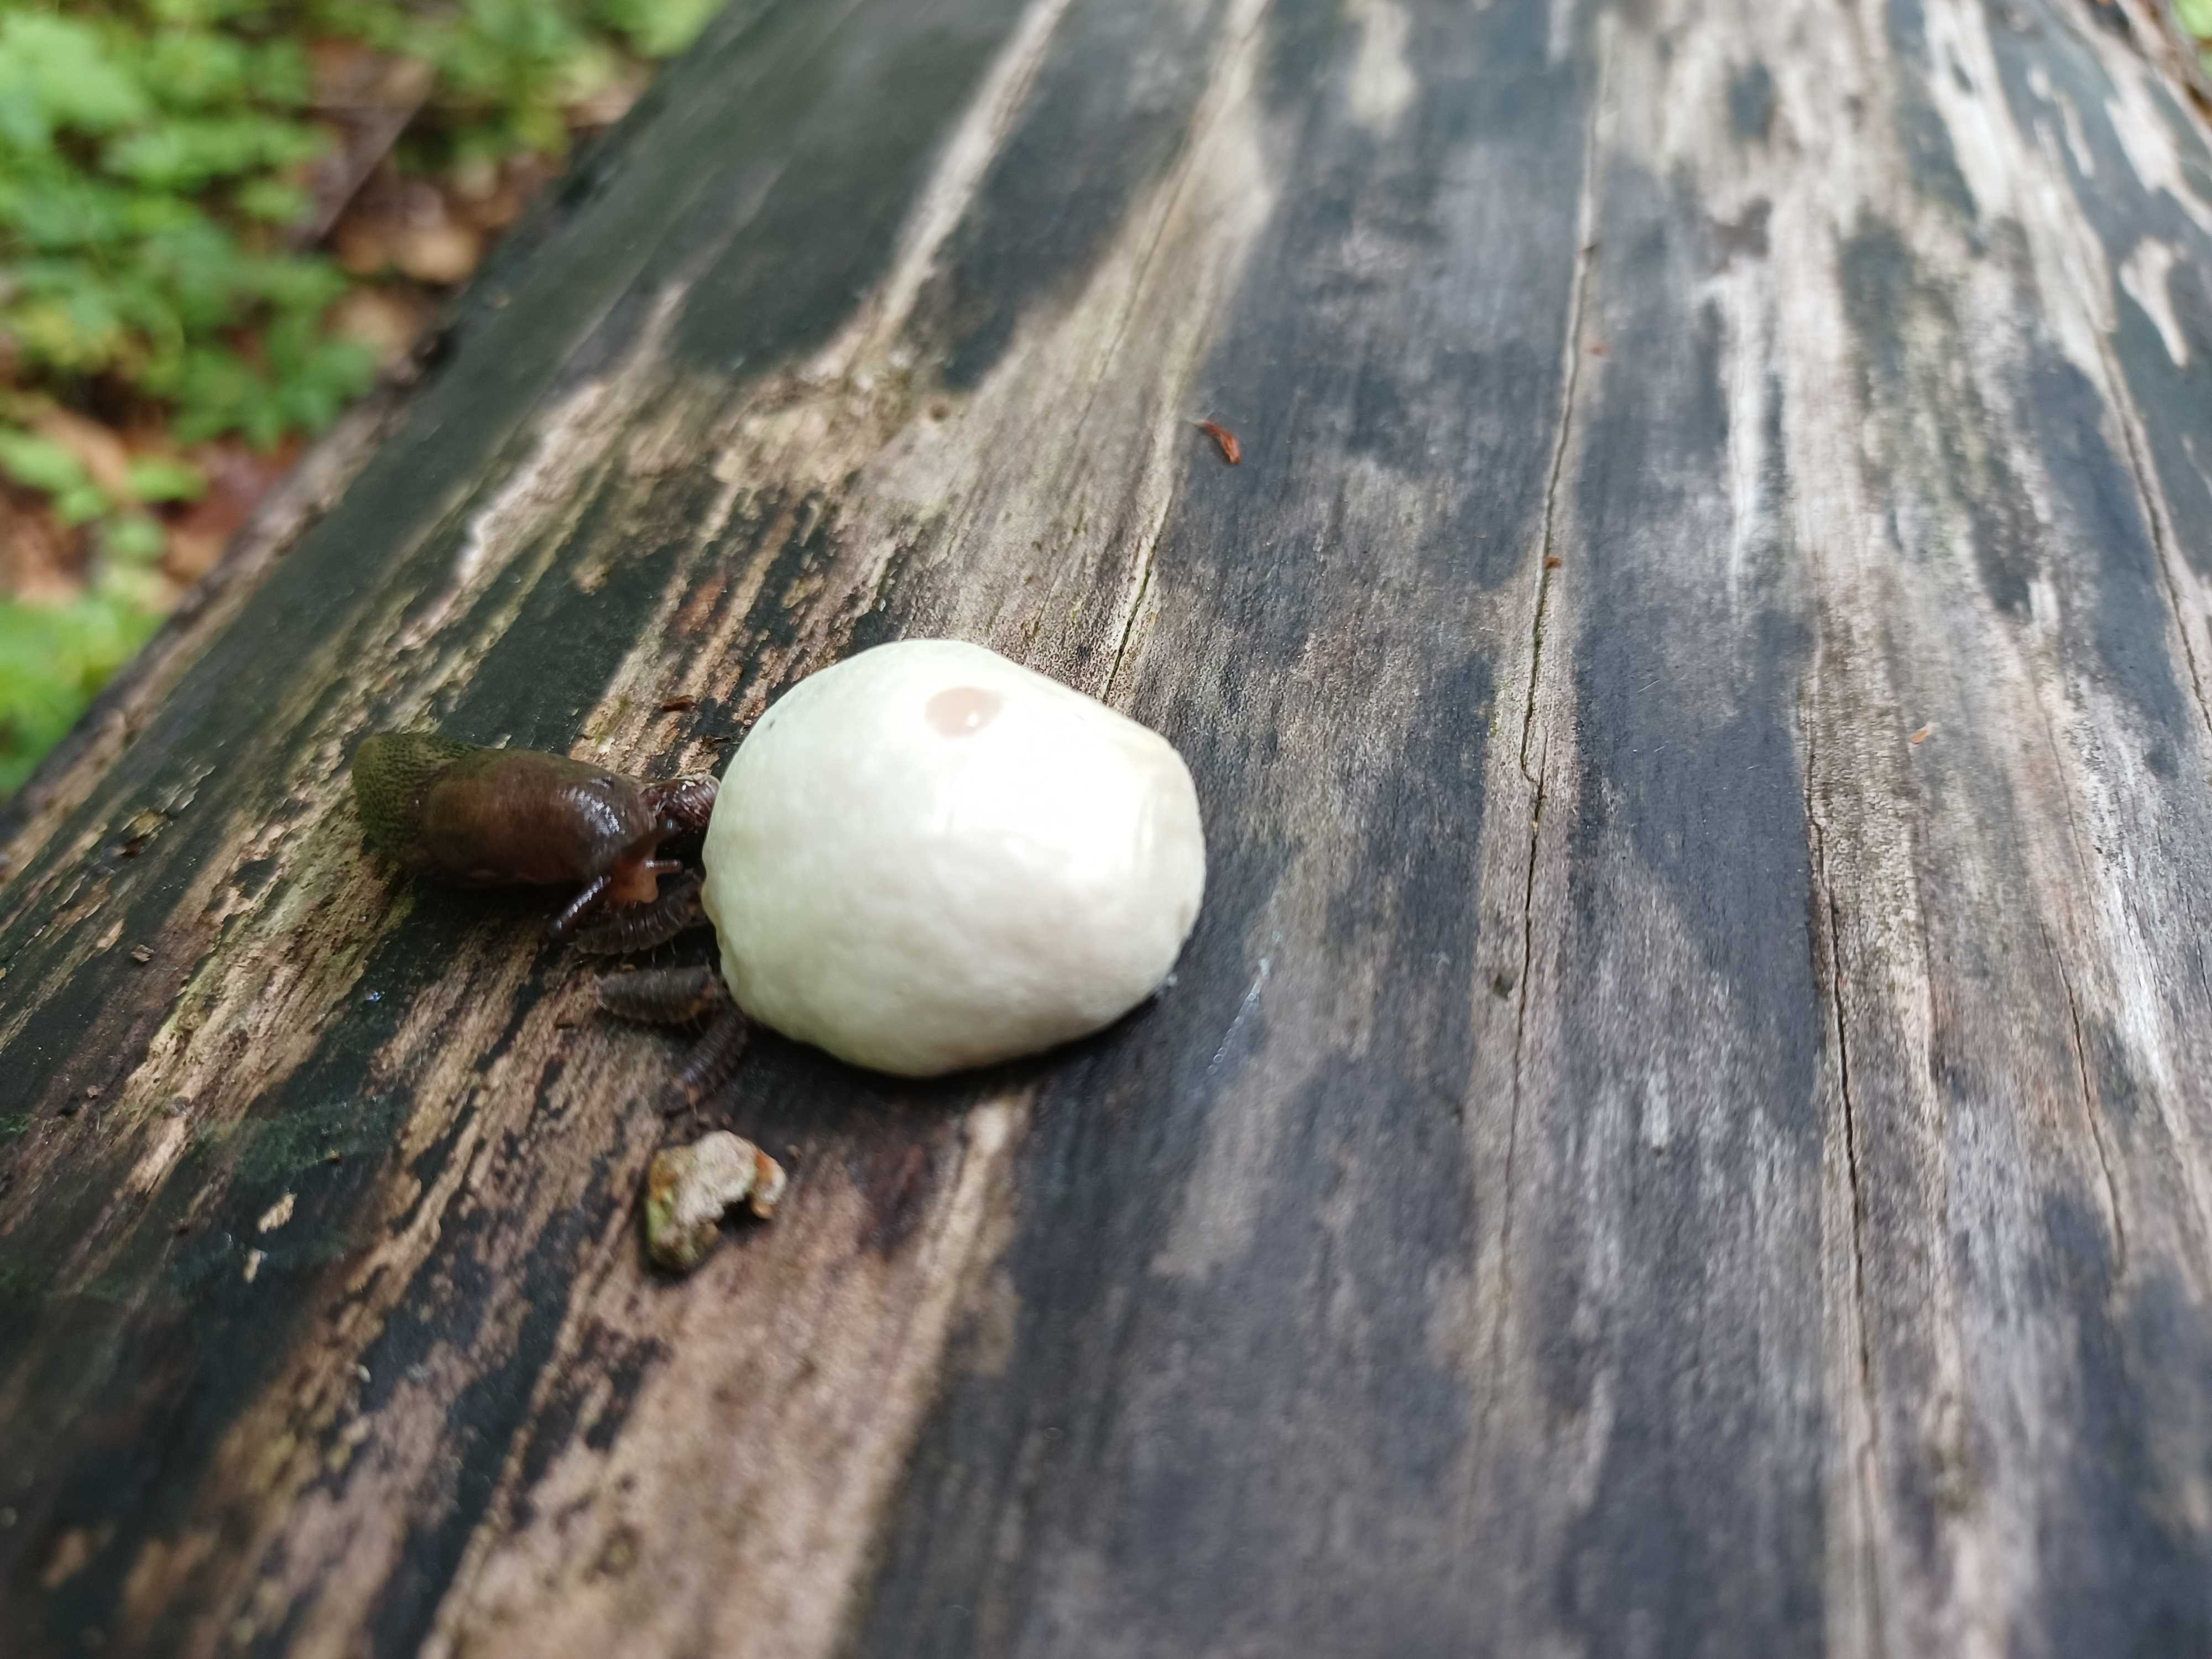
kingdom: Protozoa
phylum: Mycetozoa
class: Myxomycetes
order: Cribrariales
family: Tubiferaceae
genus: Reticularia
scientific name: Reticularia lycoperdon
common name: skinnende støvpude
